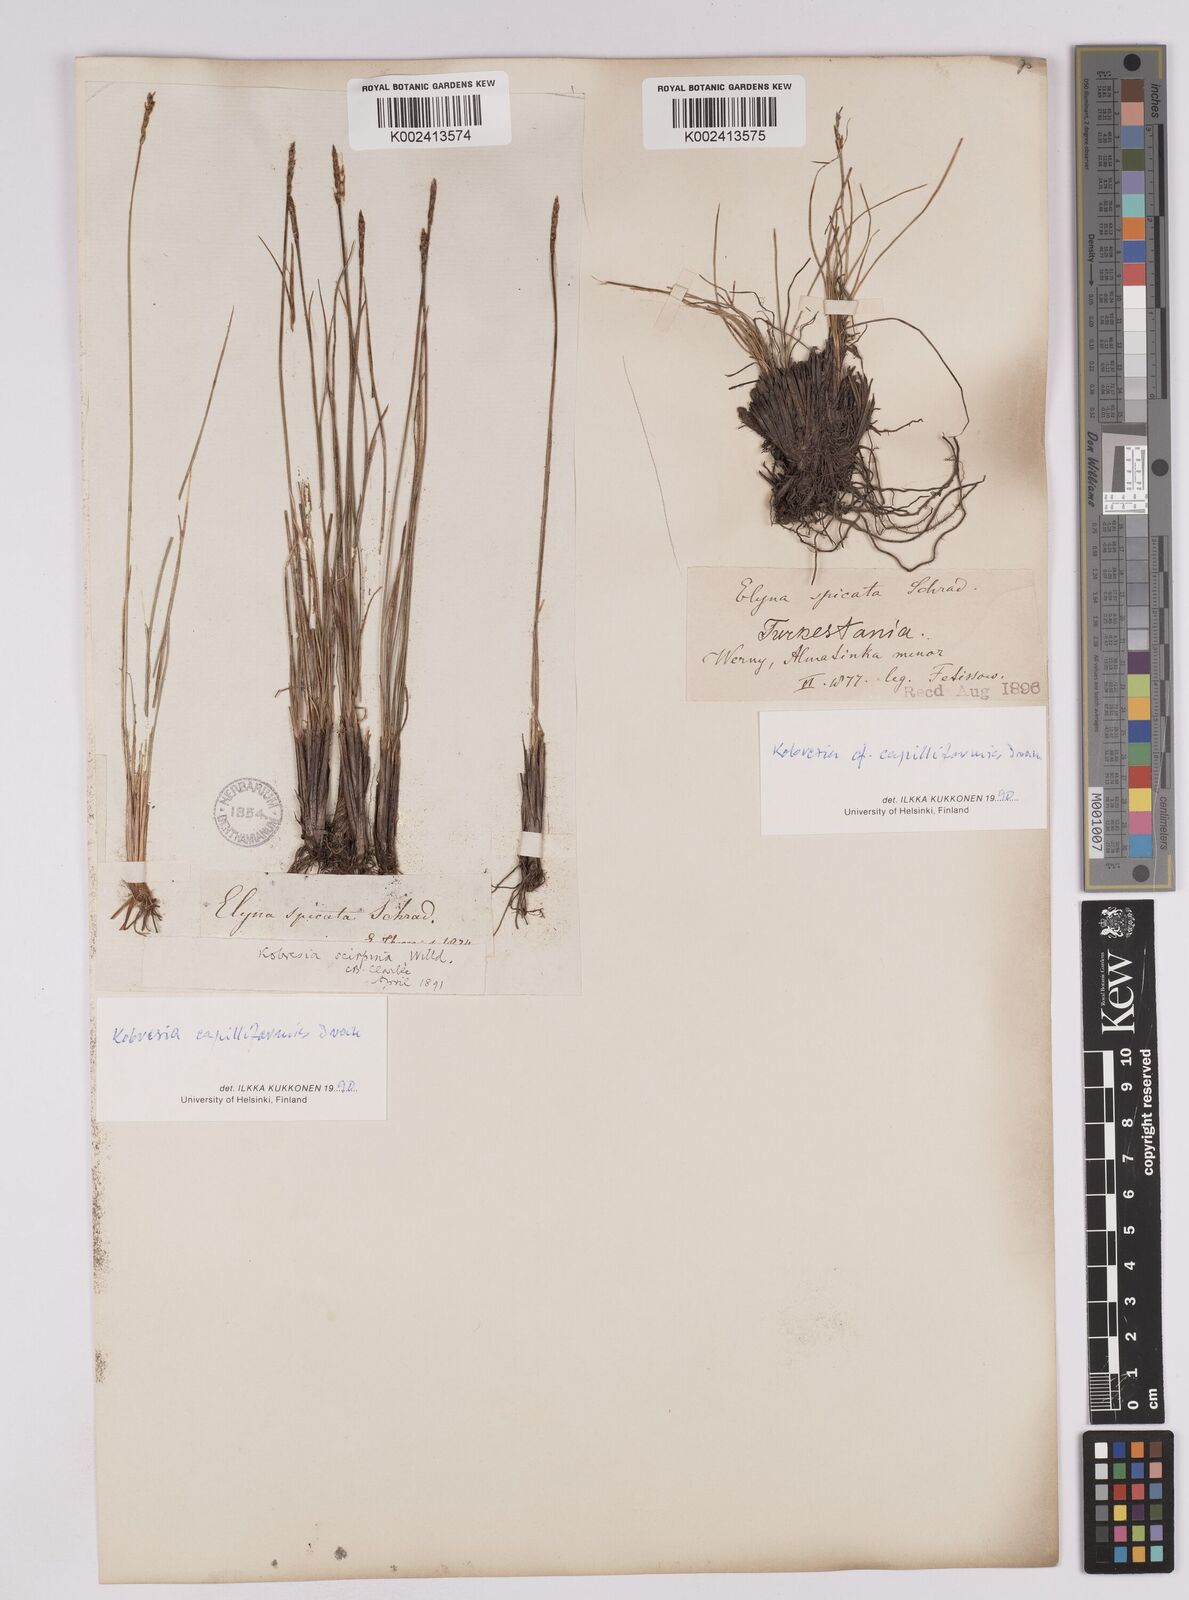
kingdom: Plantae
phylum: Tracheophyta
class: Liliopsida
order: Poales
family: Cyperaceae
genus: Carex
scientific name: Carex capillifolia
